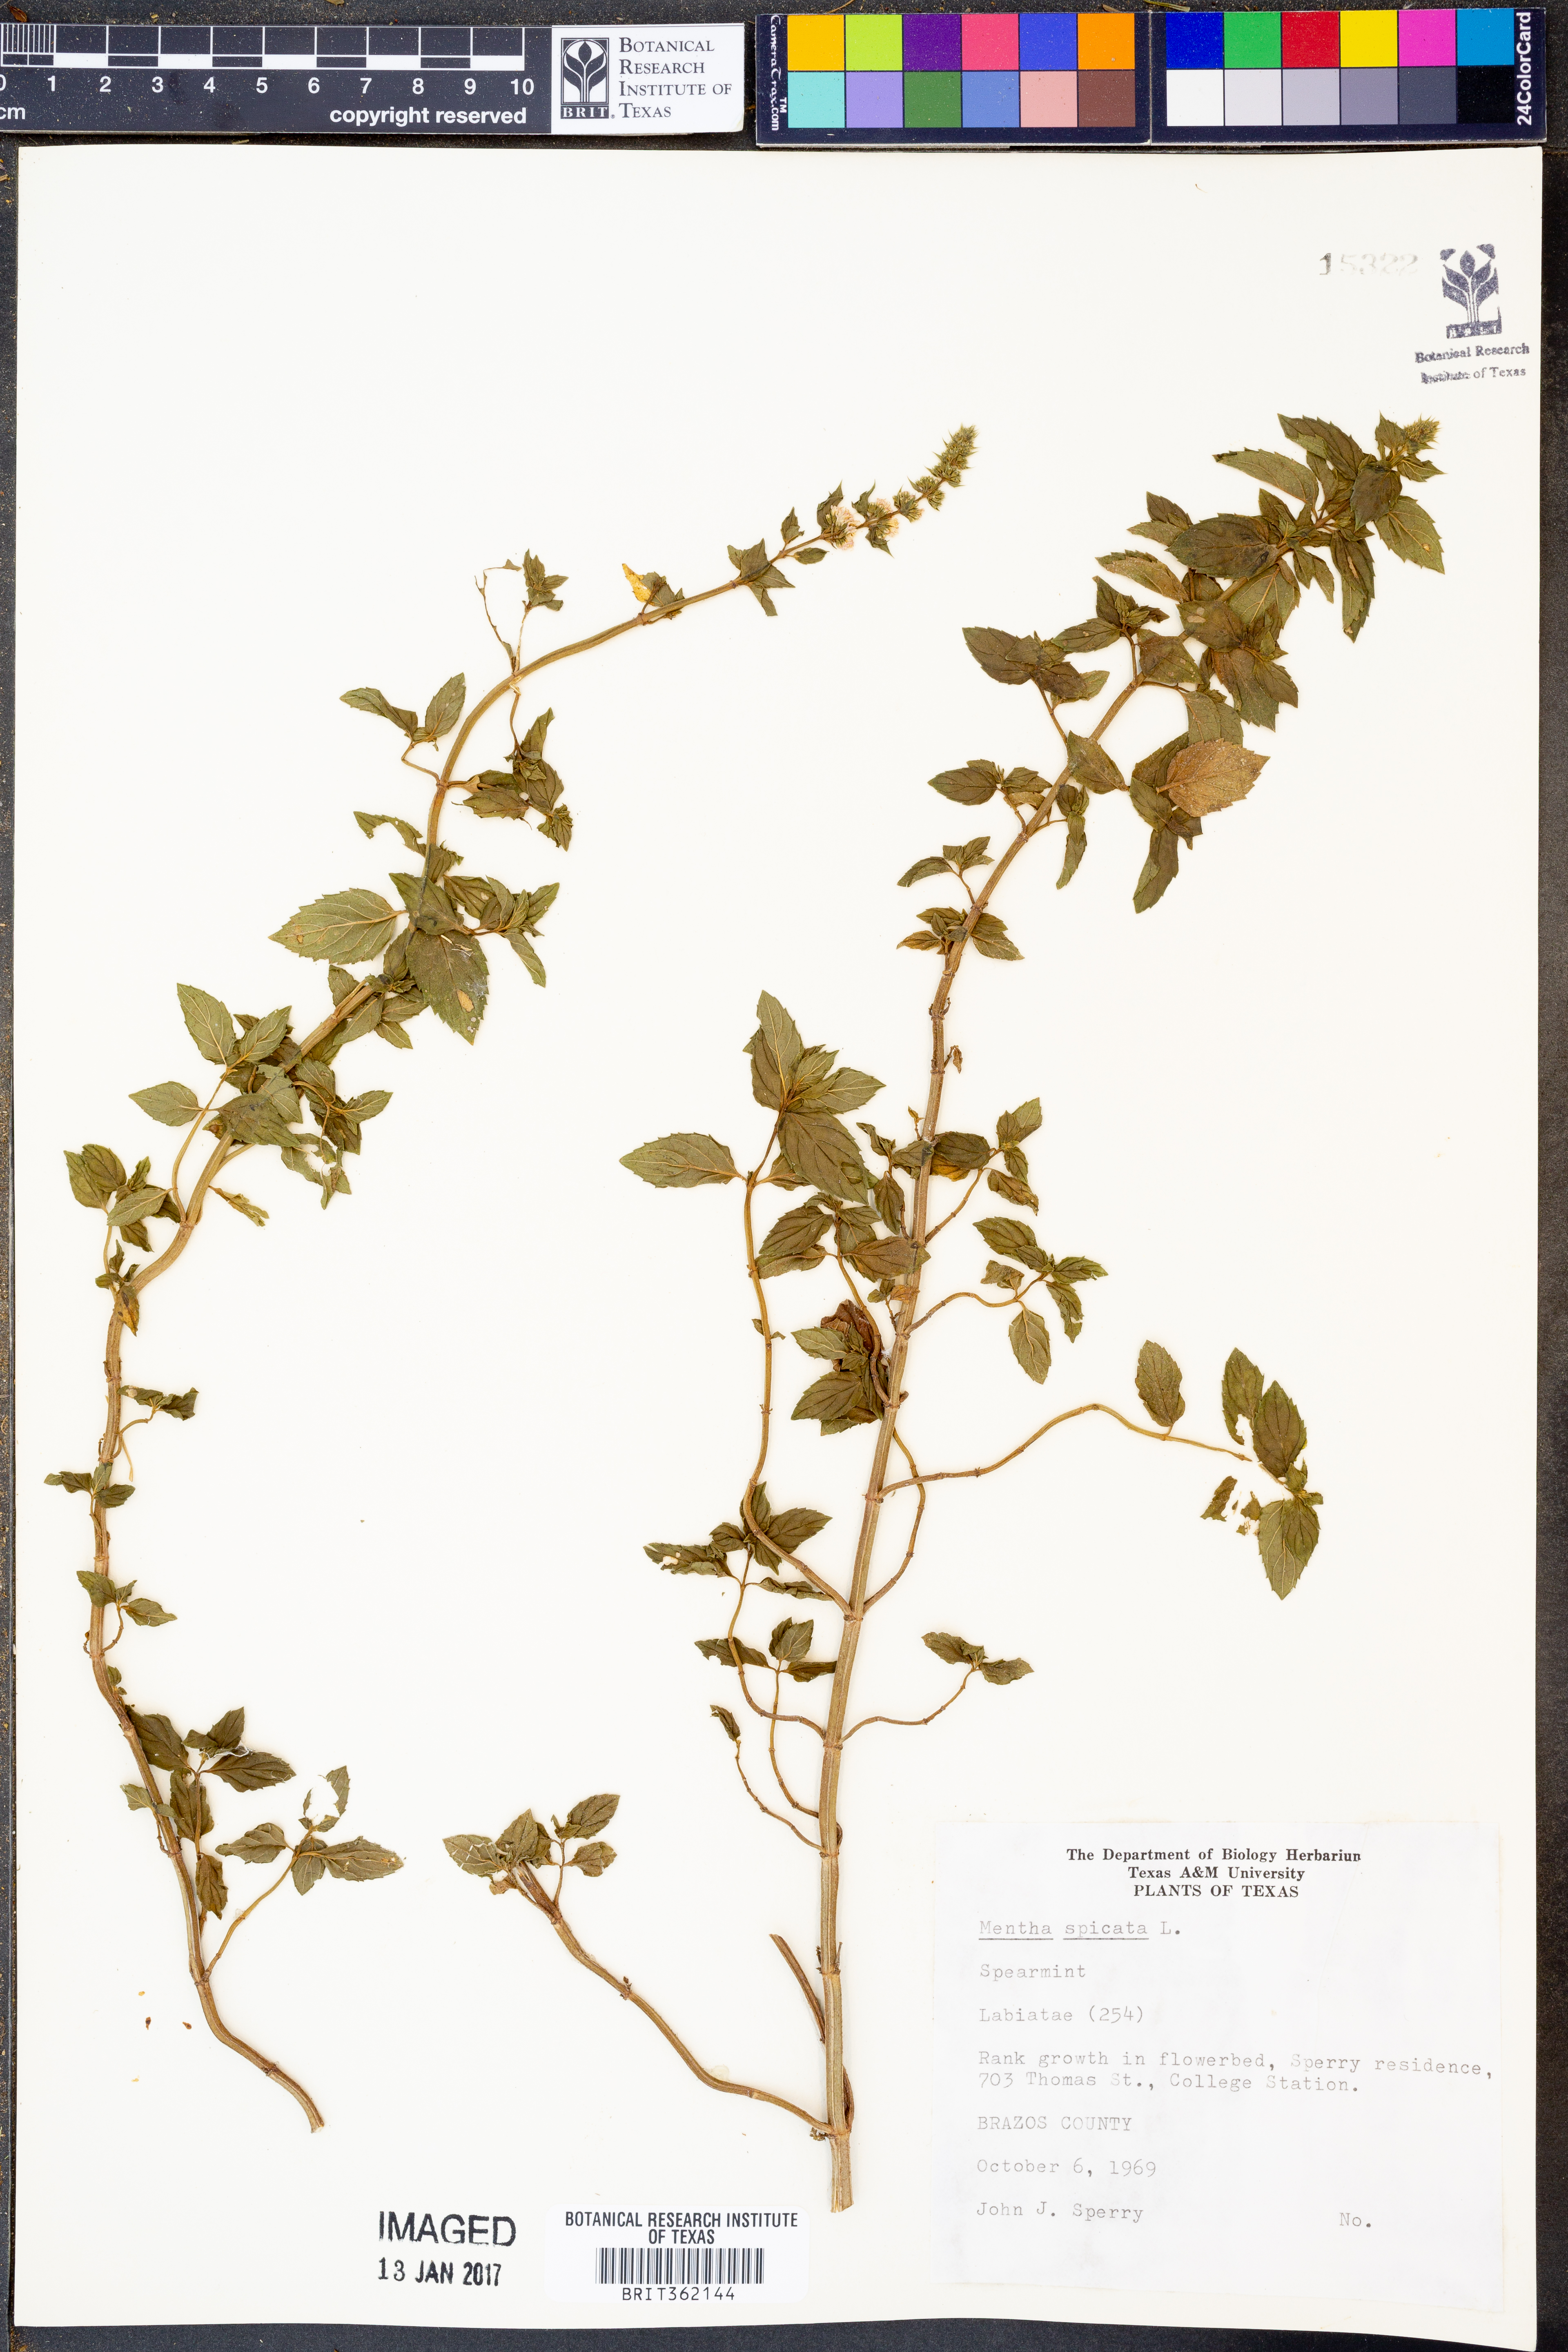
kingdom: Plantae
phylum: Tracheophyta
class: Magnoliopsida
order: Lamiales
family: Lamiaceae
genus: Mentha
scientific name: Mentha spicata
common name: Spearmint
